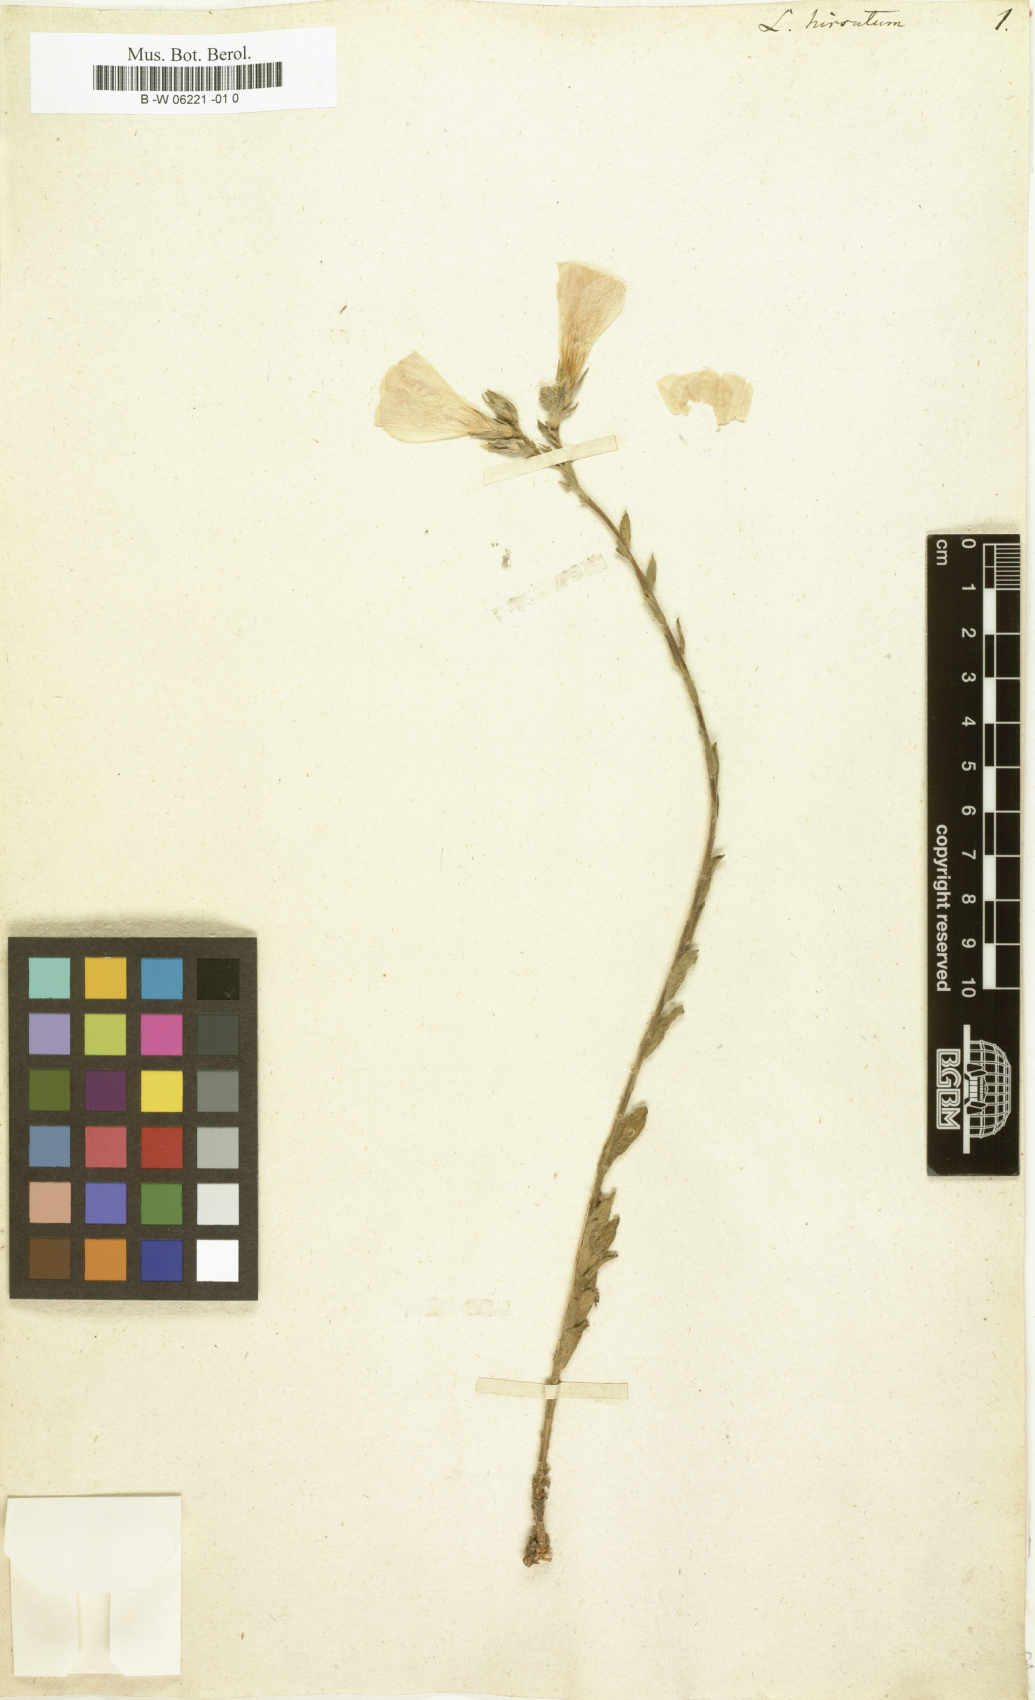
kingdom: Plantae
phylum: Tracheophyta
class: Magnoliopsida
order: Malpighiales
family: Linaceae
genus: Linum
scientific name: Linum hirsutum
